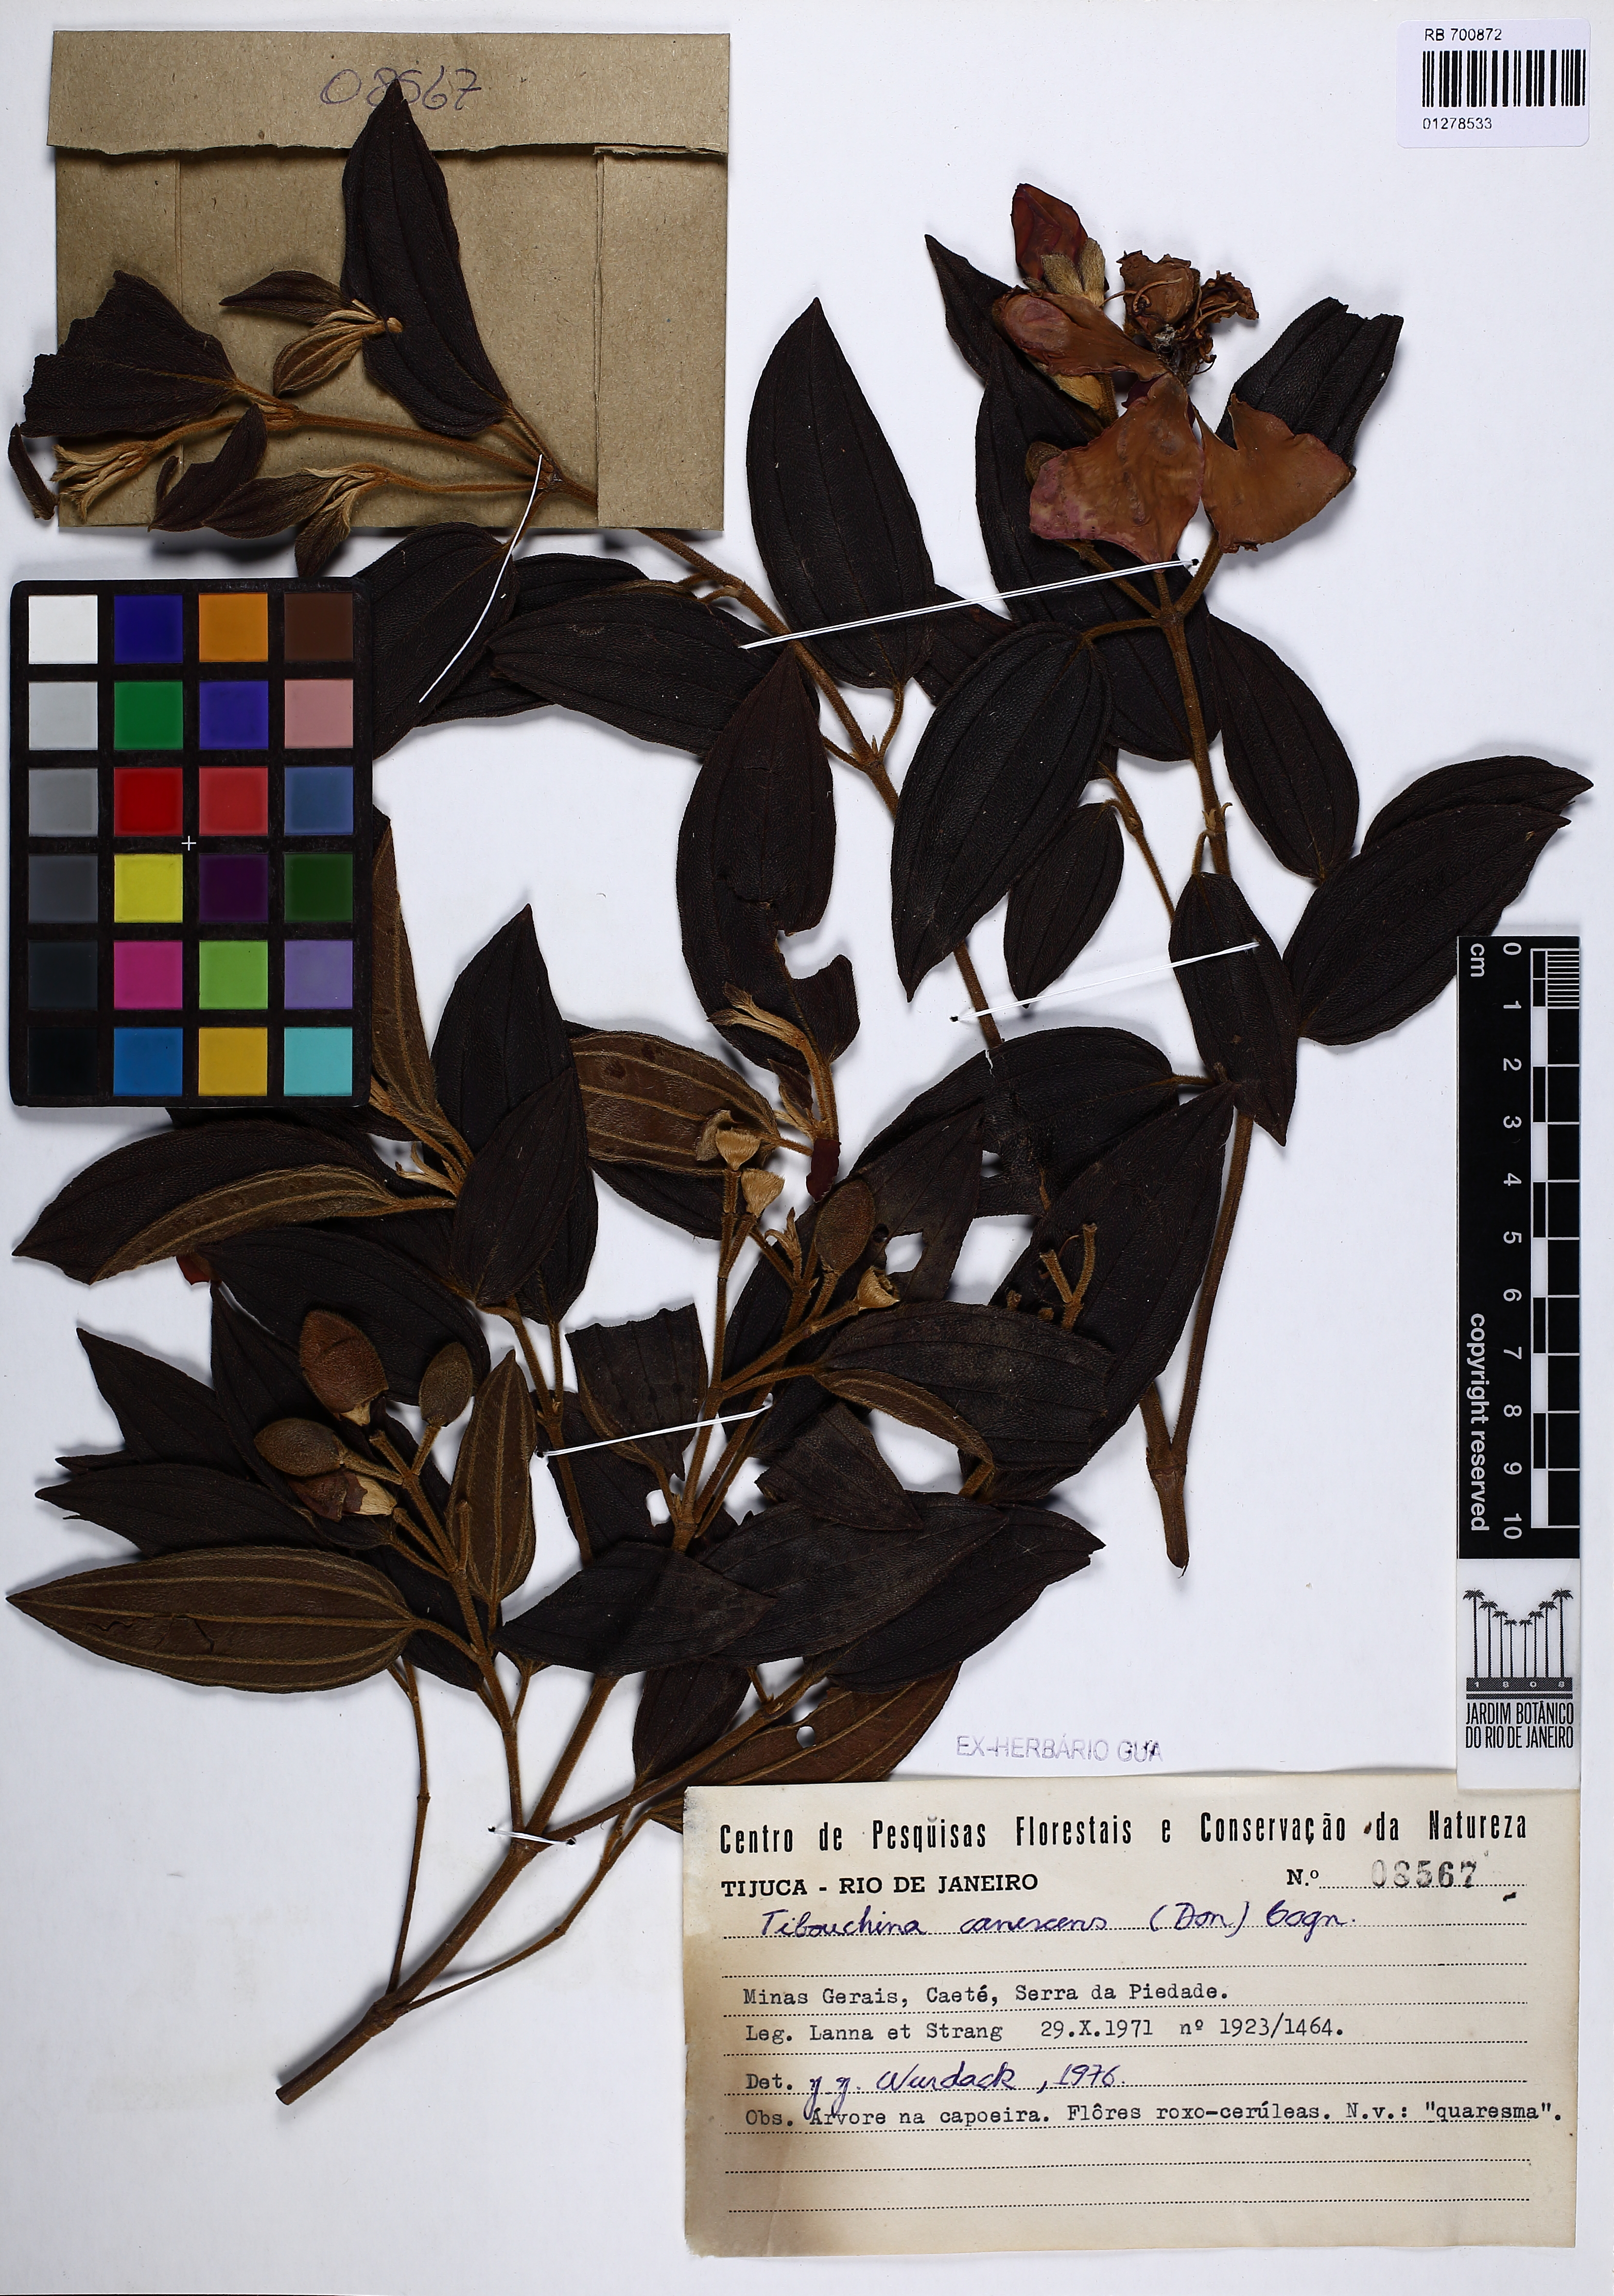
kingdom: Plantae
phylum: Tracheophyta
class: Magnoliopsida
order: Myrtales
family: Melastomataceae
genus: Pleroma
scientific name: Pleroma canescens
